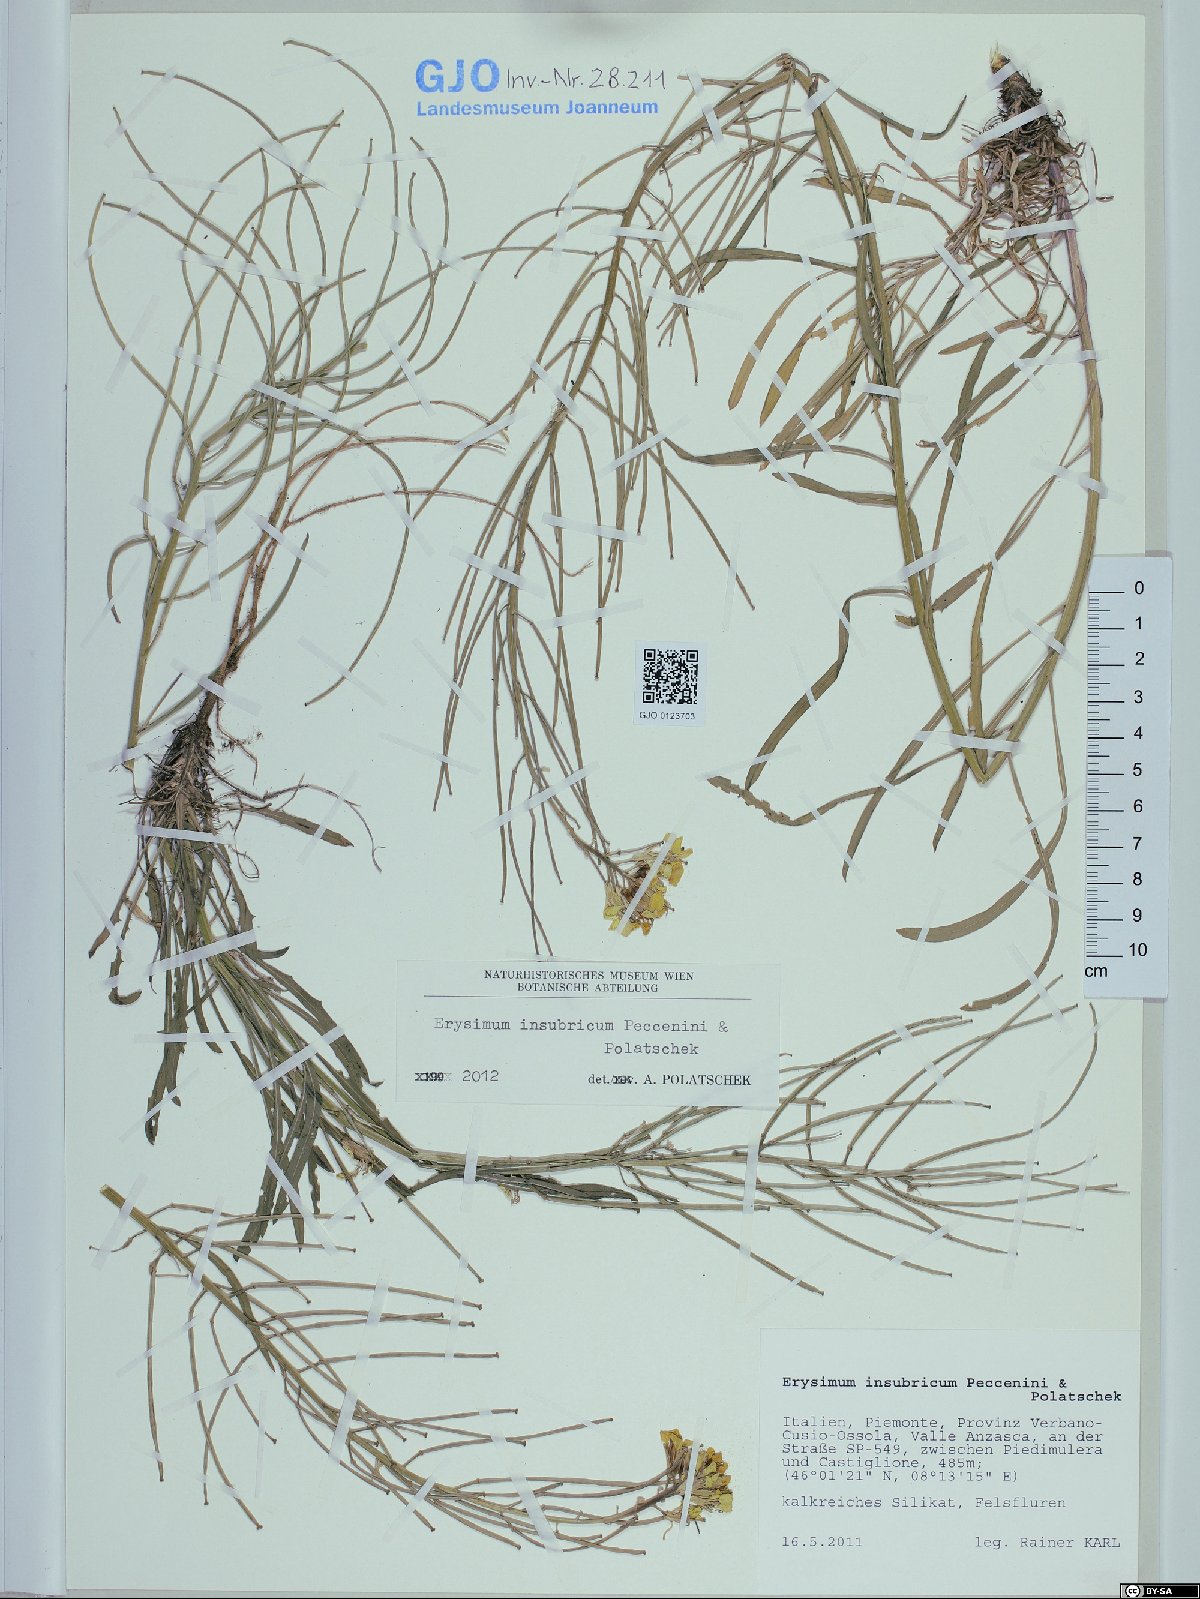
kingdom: Plantae
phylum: Tracheophyta
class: Magnoliopsida
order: Brassicales
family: Brassicaceae
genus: Erysimum
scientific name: Erysimum insubricum
